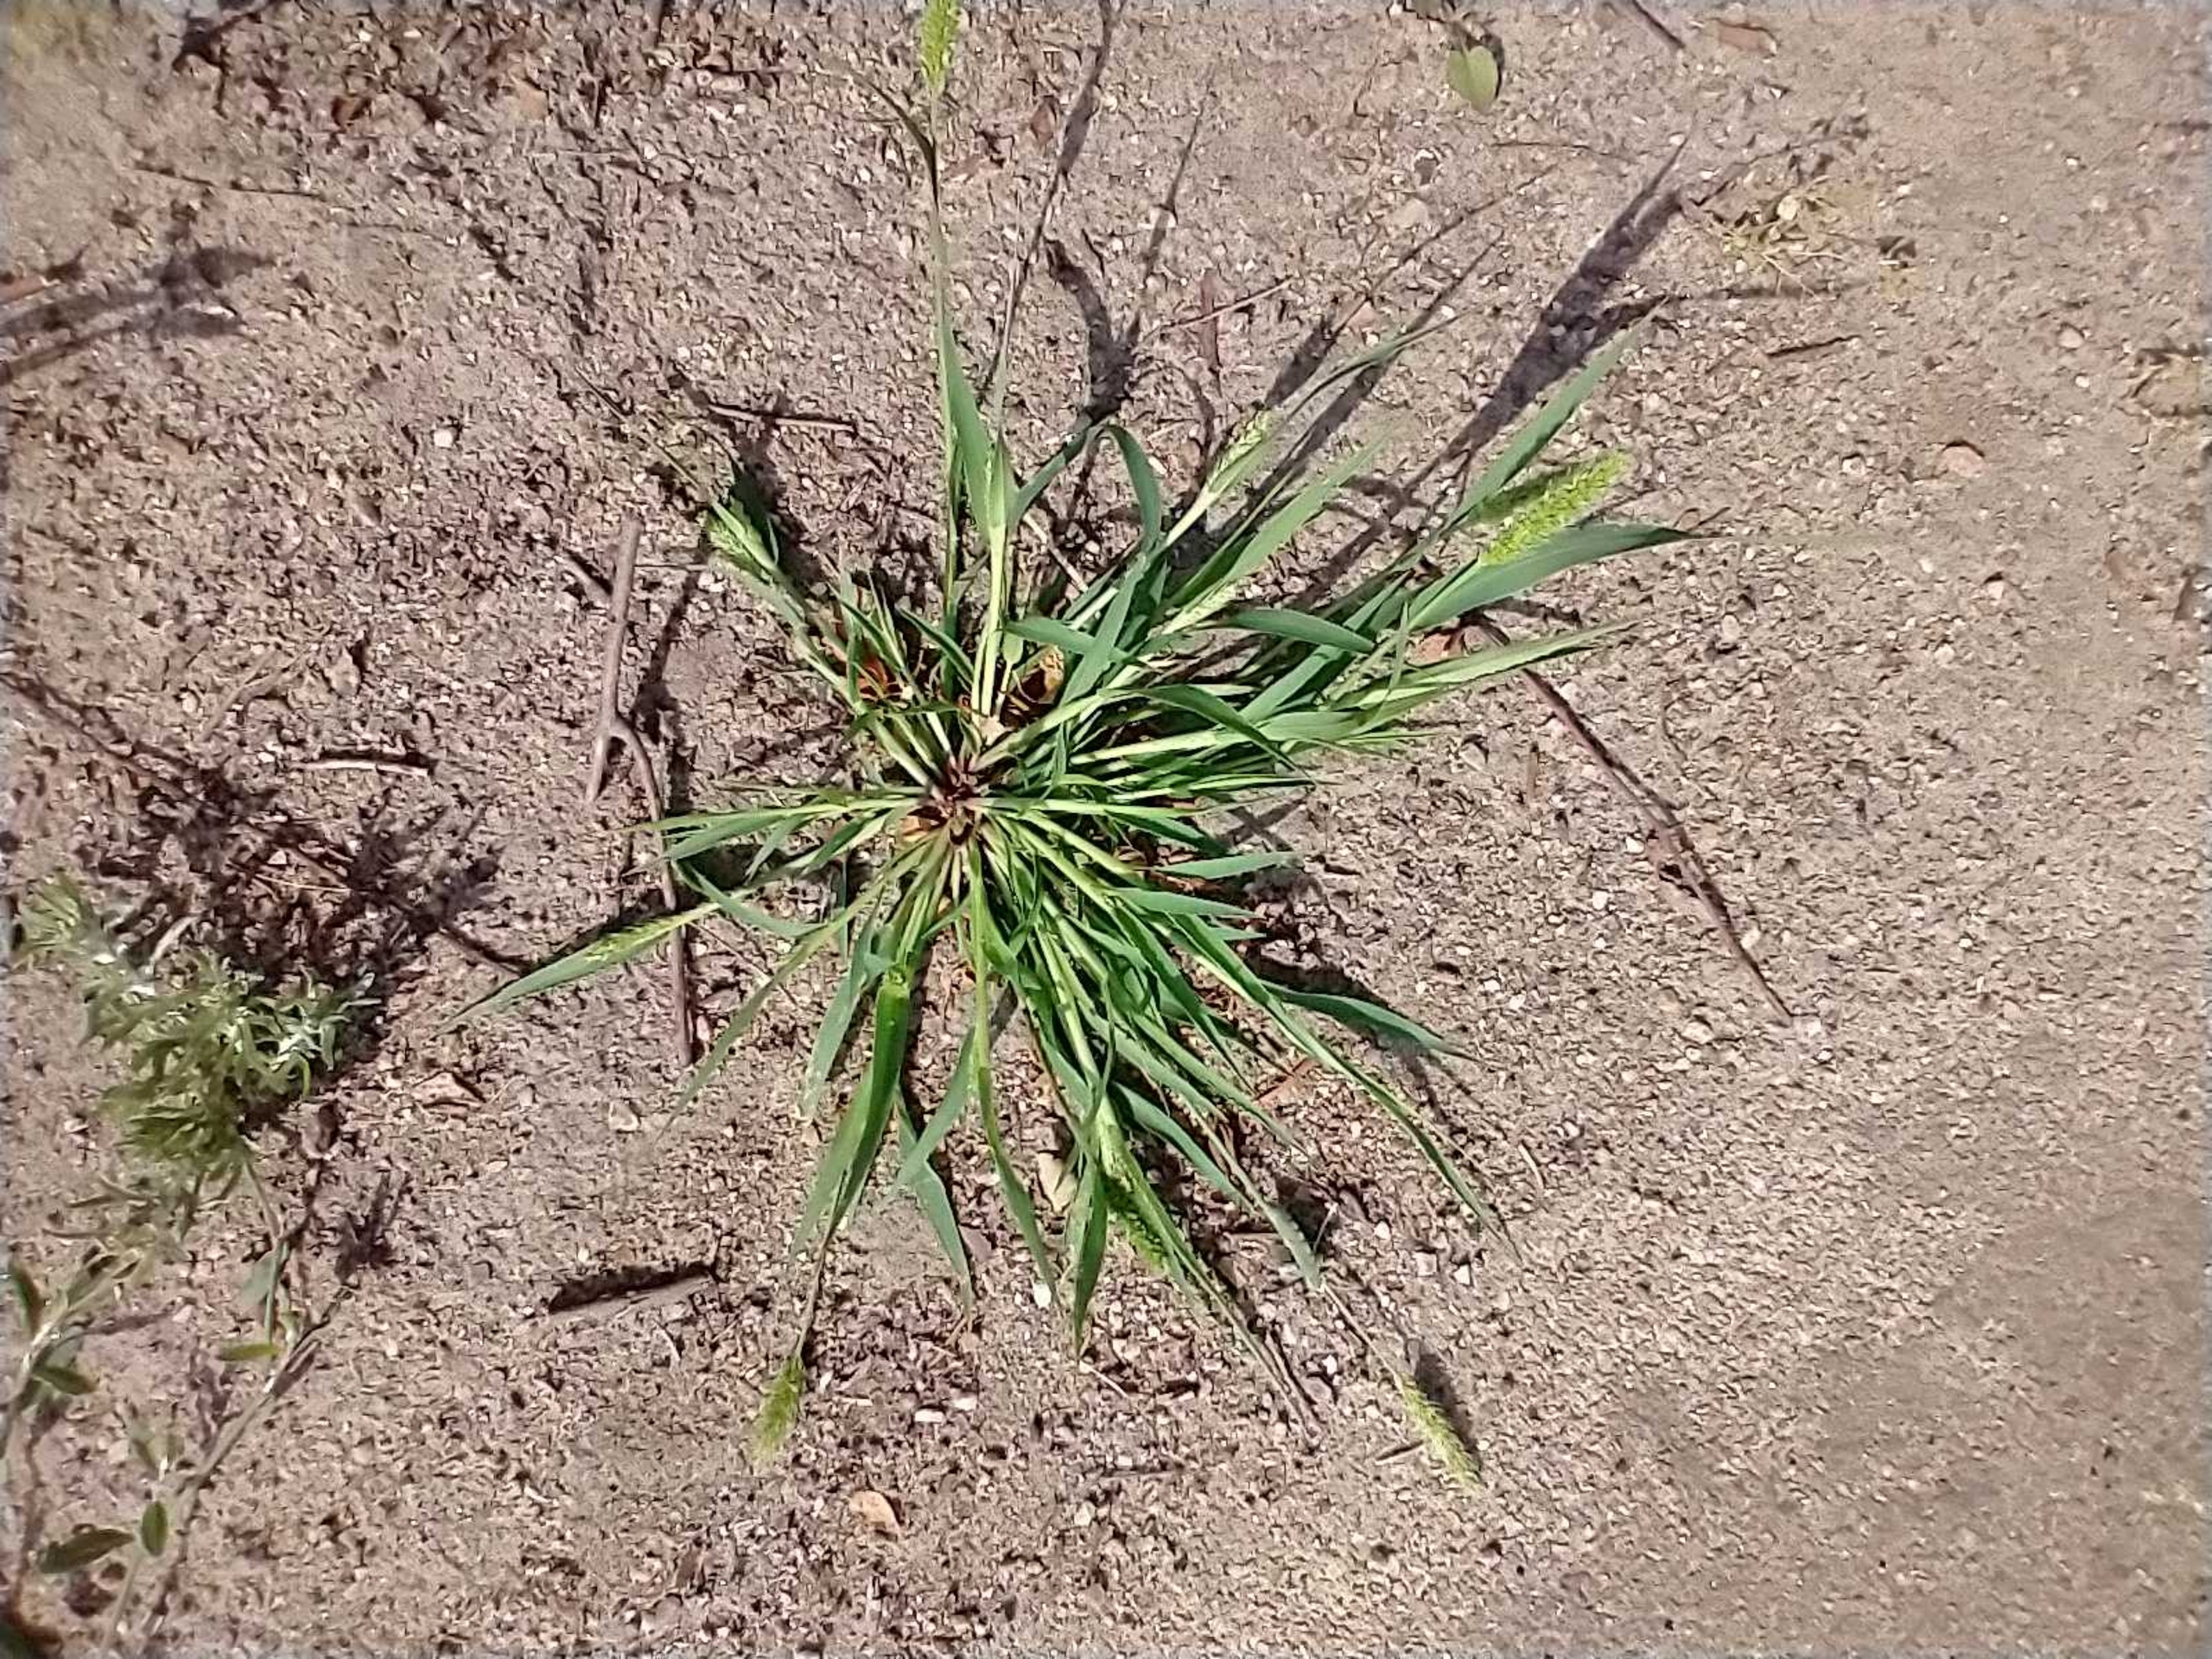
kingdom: Plantae
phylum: Tracheophyta
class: Liliopsida
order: Poales
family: Poaceae
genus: Setaria
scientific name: Setaria viridis
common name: Grøn skærmaks
